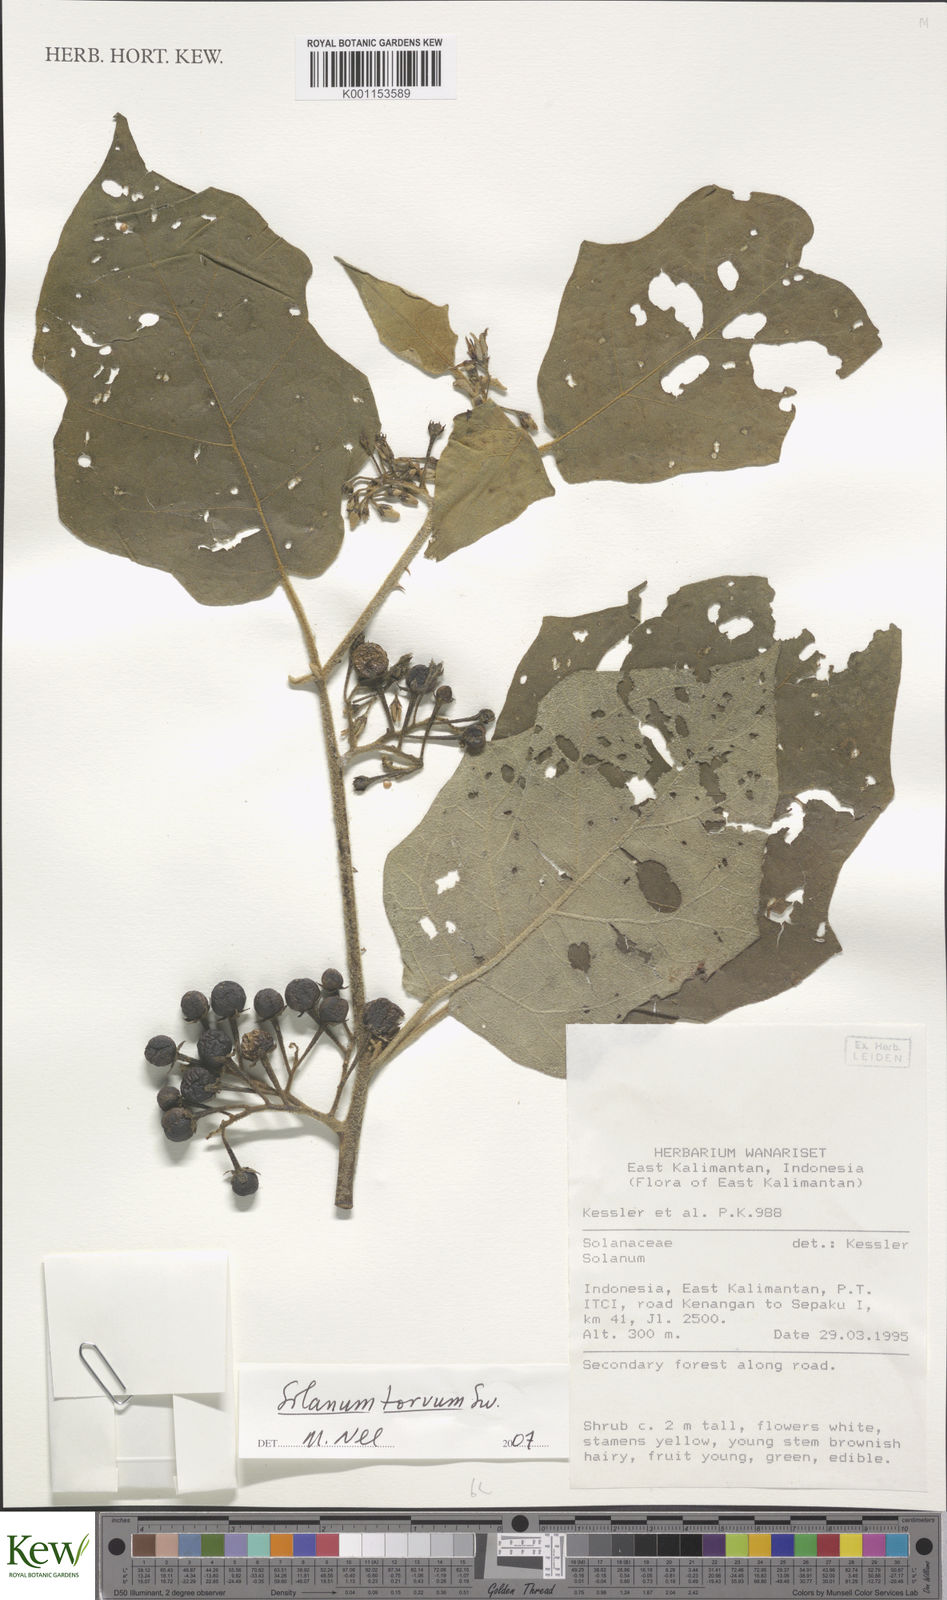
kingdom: Plantae
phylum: Tracheophyta
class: Magnoliopsida
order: Solanales
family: Solanaceae
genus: Solanum
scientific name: Solanum torvum
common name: Turkey berry
